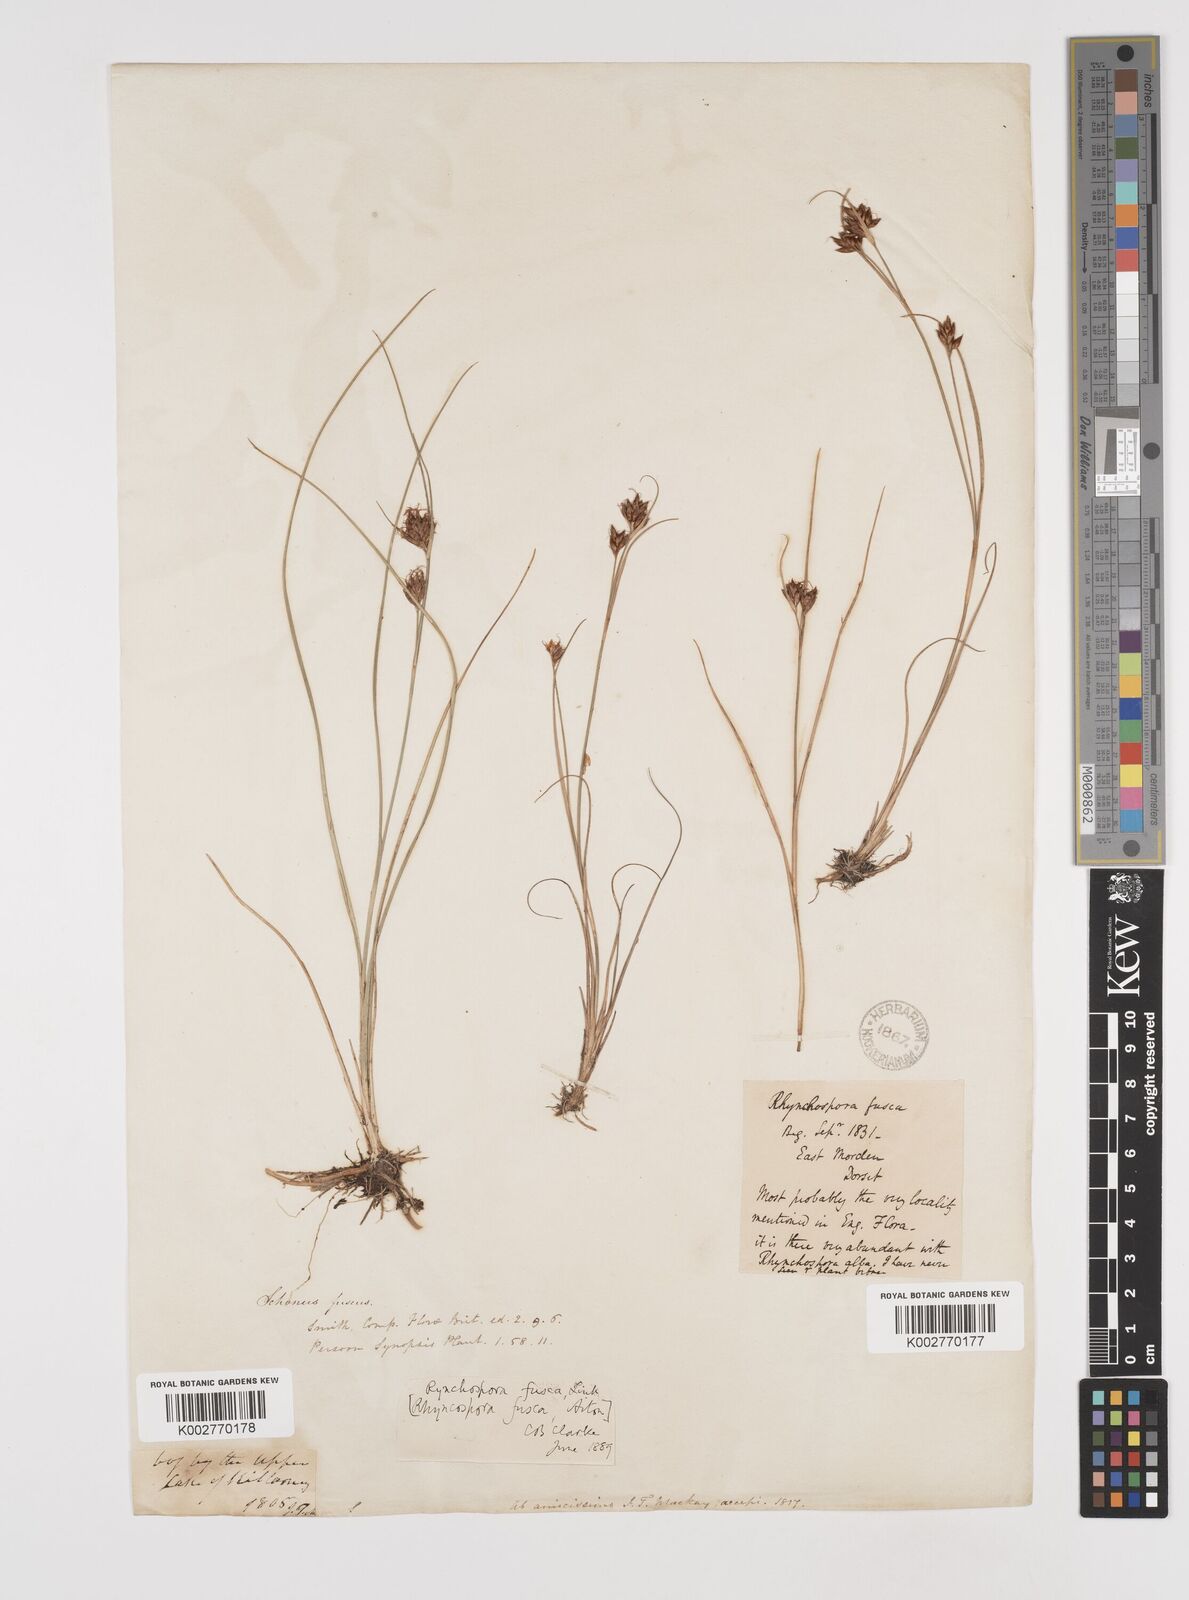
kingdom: Plantae
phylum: Tracheophyta
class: Liliopsida
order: Poales
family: Cyperaceae
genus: Rhynchospora
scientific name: Rhynchospora fusca
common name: Brown beak-sedge
